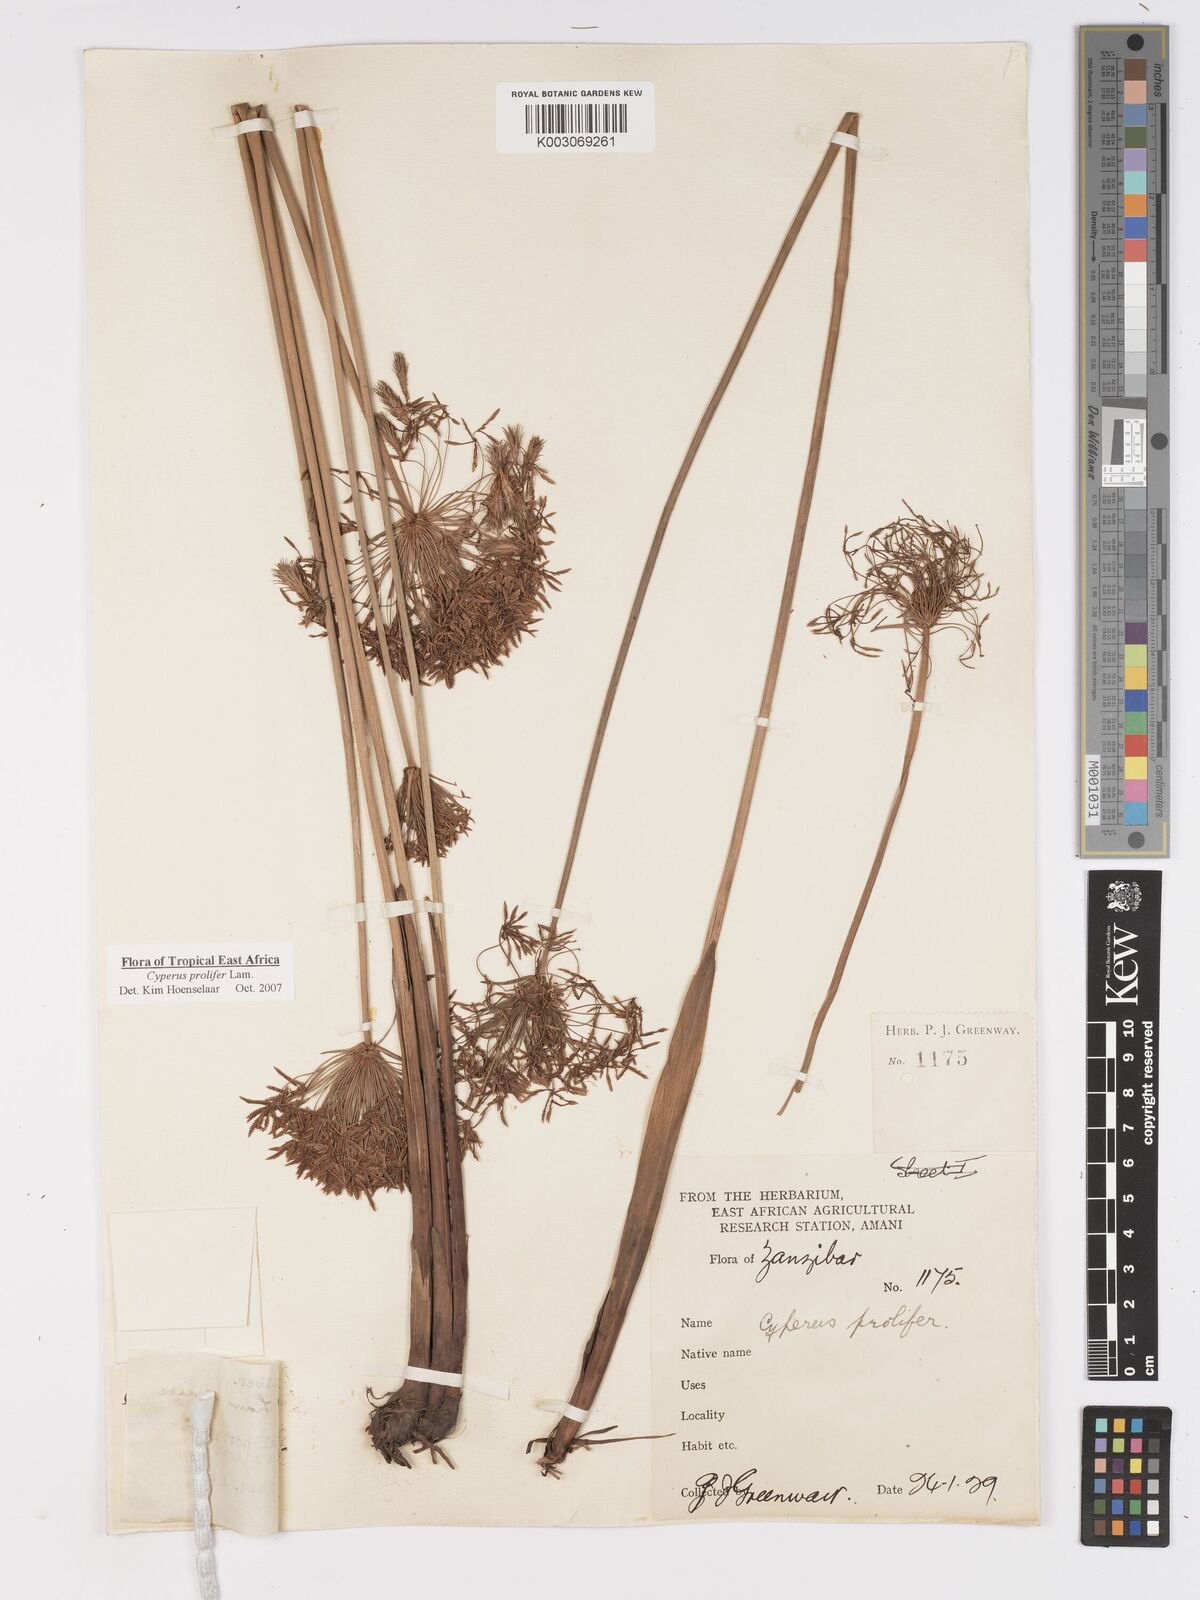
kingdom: Plantae
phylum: Tracheophyta
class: Liliopsida
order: Poales
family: Cyperaceae
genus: Cyperus
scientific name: Cyperus prolifer
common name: Miniature flatsedge
